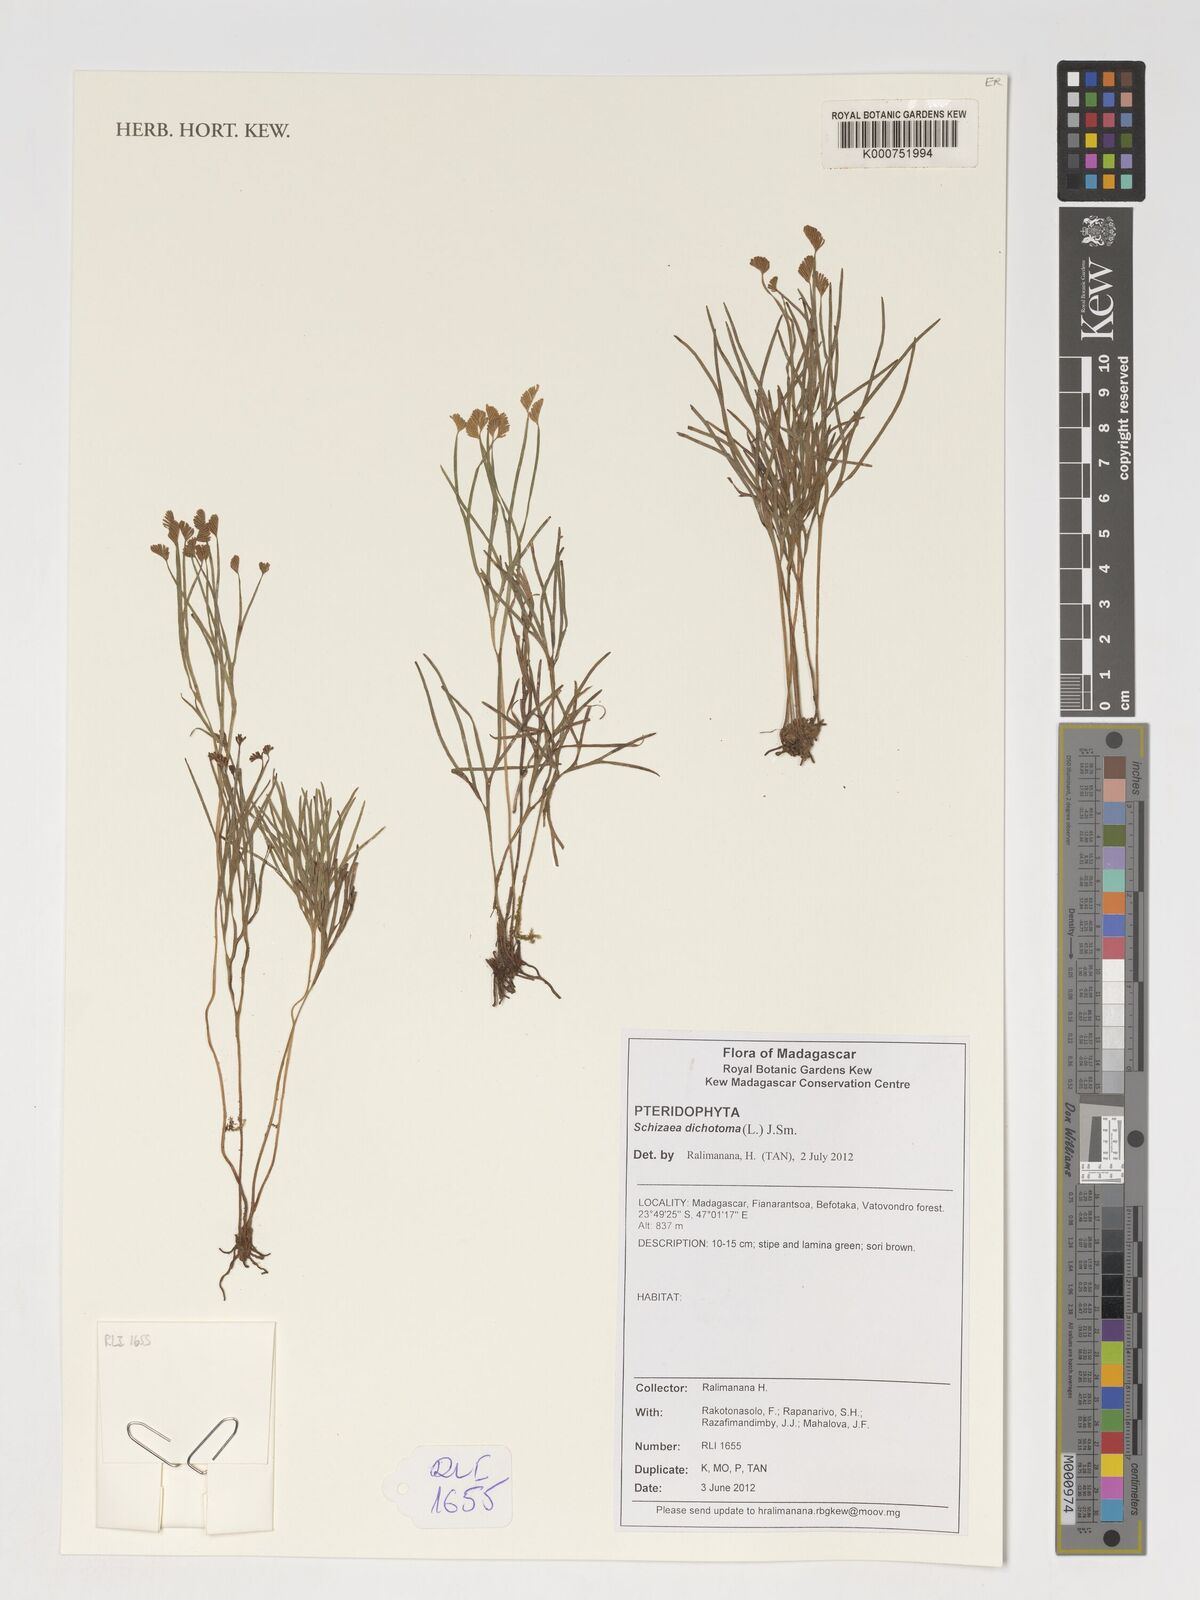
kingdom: Plantae
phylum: Tracheophyta
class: Polypodiopsida
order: Schizaeales
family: Schizaeaceae
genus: Schizaea
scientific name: Schizaea dichotoma
